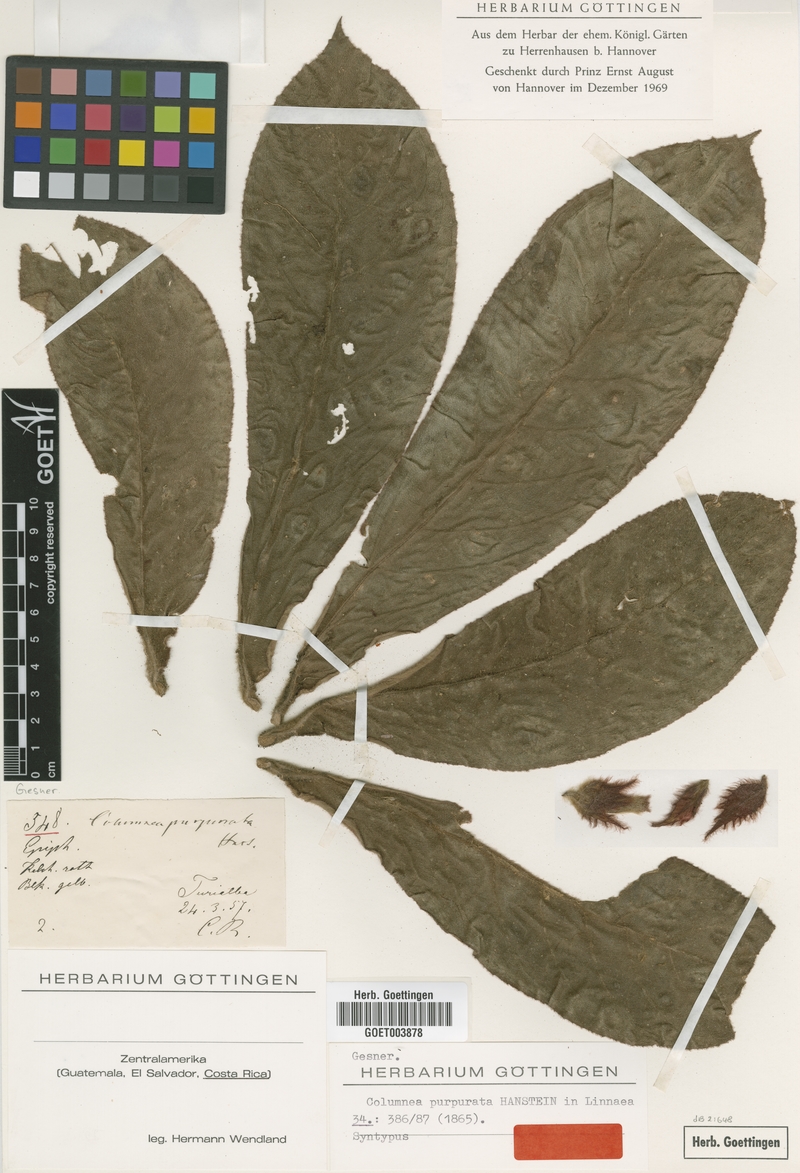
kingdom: Plantae
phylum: Tracheophyta
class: Magnoliopsida
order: Lamiales
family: Gesneriaceae
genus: Columnea
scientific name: Columnea purpurata
